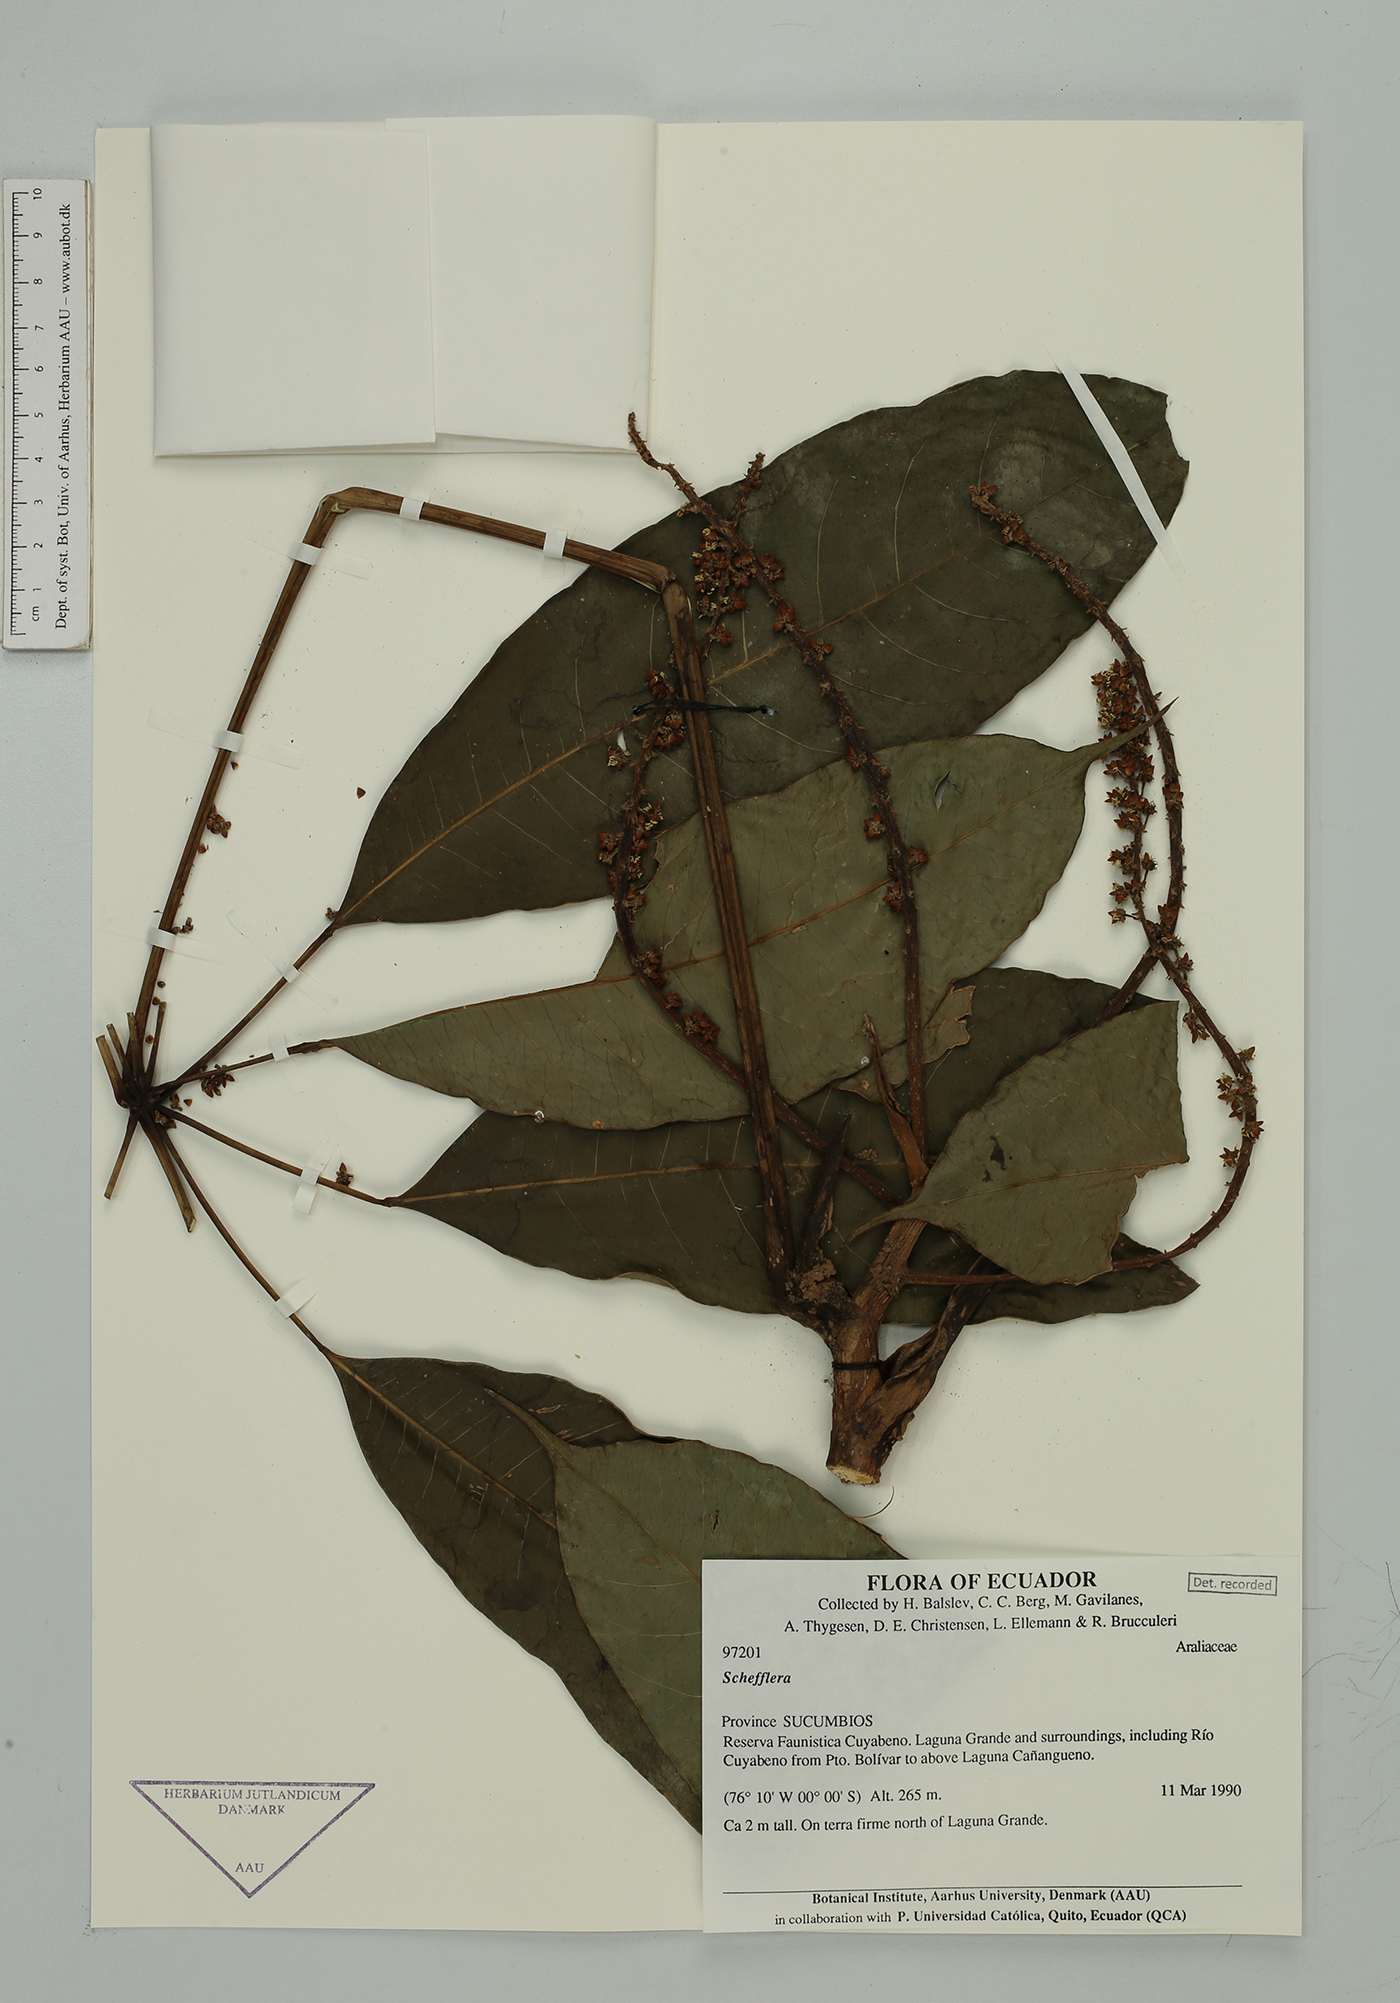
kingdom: Plantae
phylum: Tracheophyta
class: Magnoliopsida
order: Apiales
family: Araliaceae
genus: Sciodaphyllum
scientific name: Sciodaphyllum sprucei
